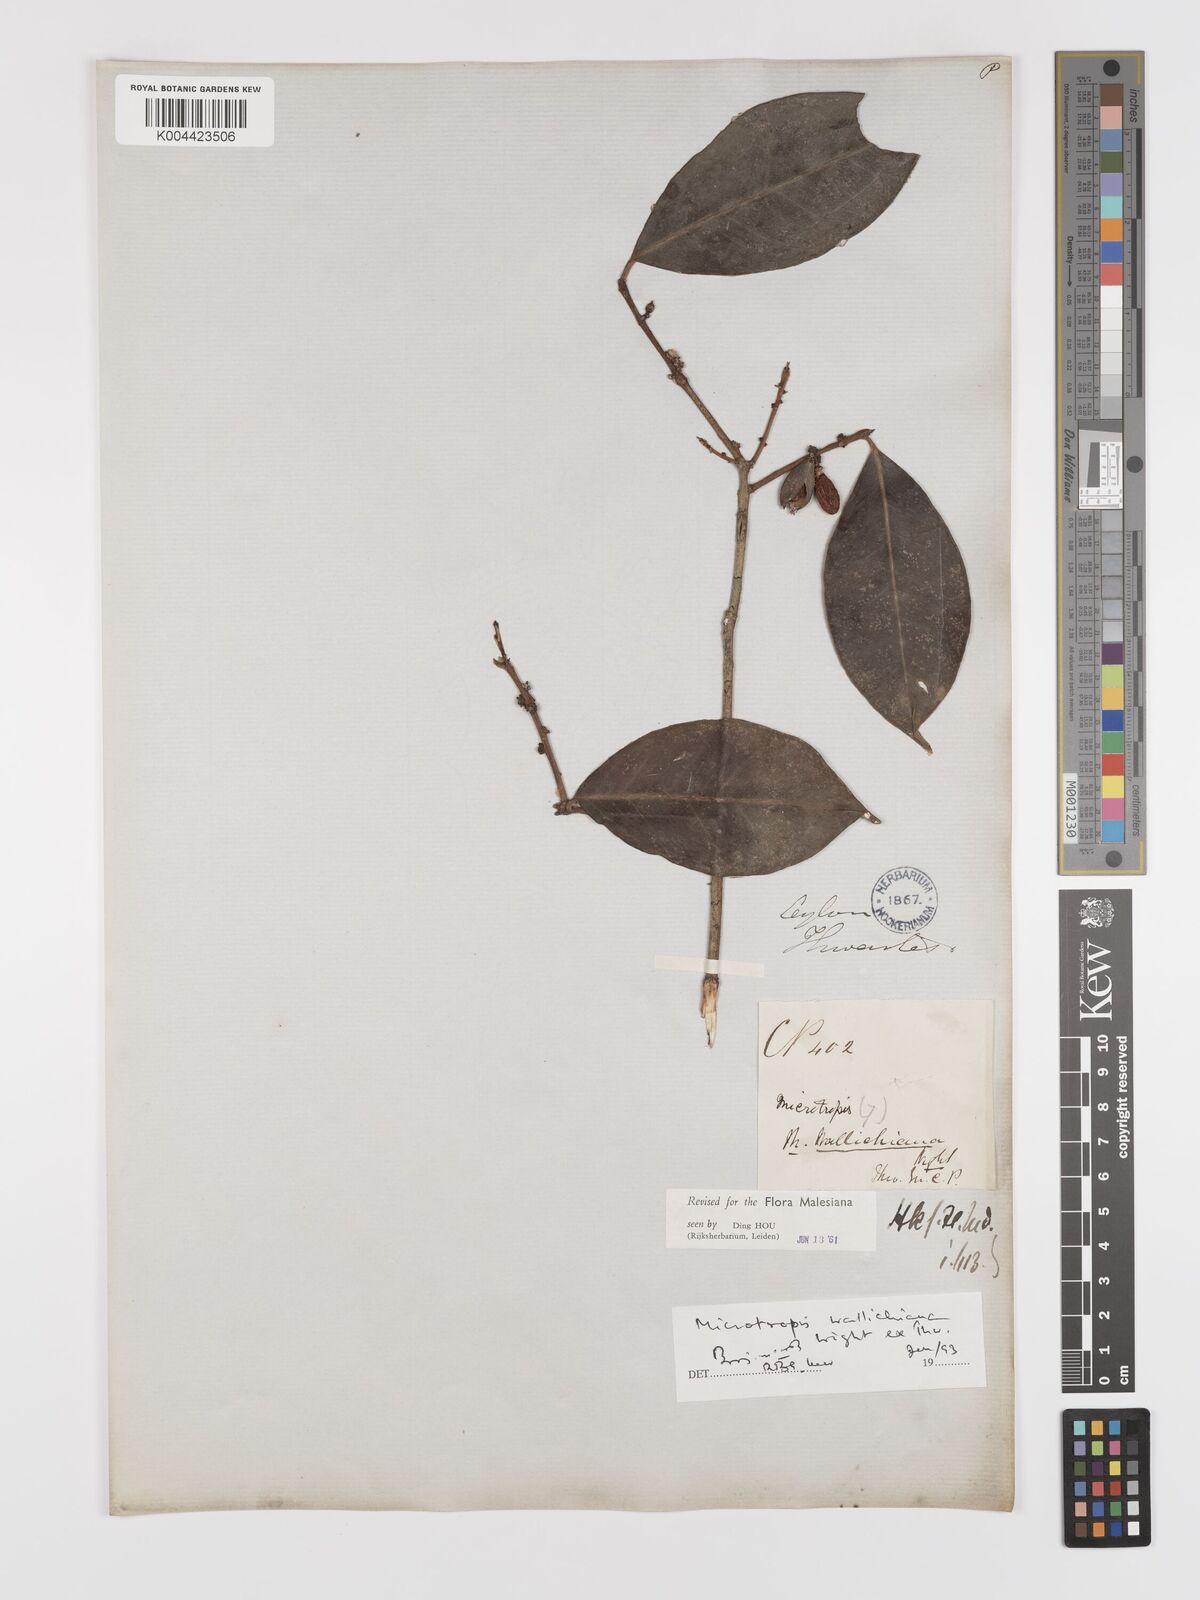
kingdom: Plantae
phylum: Tracheophyta
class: Magnoliopsida
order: Celastrales
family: Celastraceae
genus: Microtropis
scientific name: Microtropis wallichiana
